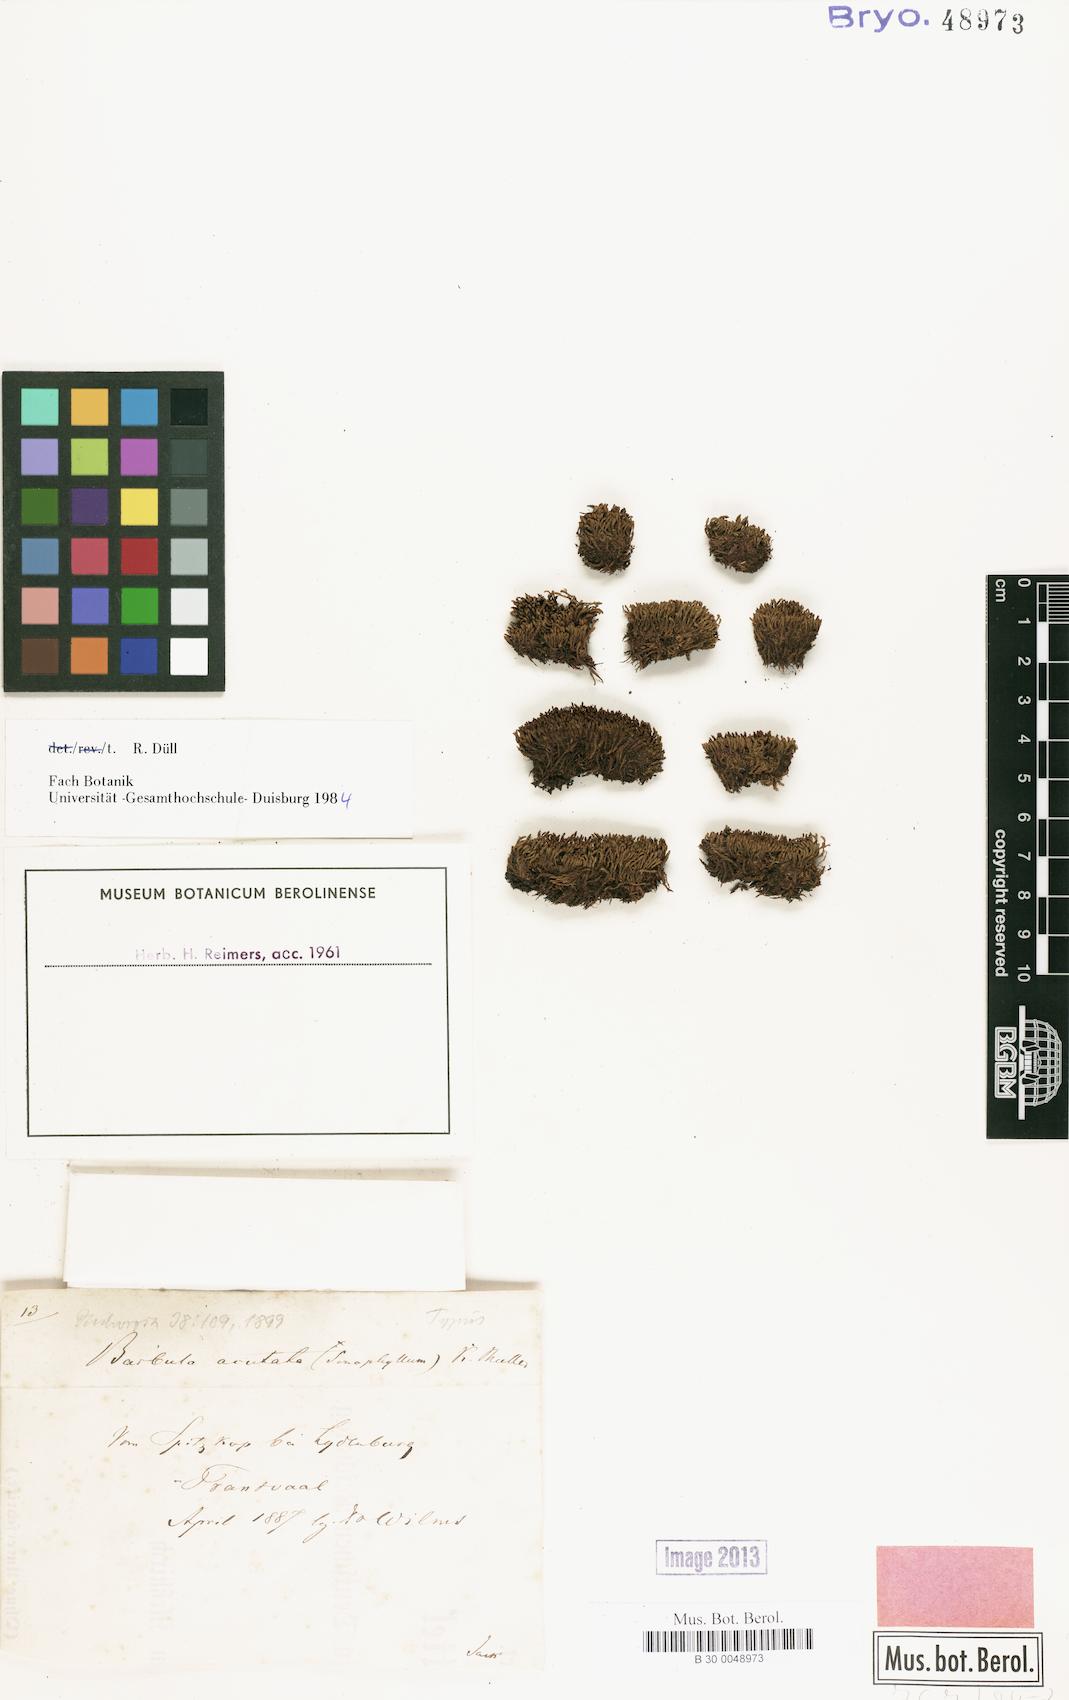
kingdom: Plantae
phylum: Bryophyta
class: Bryopsida
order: Pottiales
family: Pottiaceae
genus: Pseudocrossidium
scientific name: Pseudocrossidium replicatum
